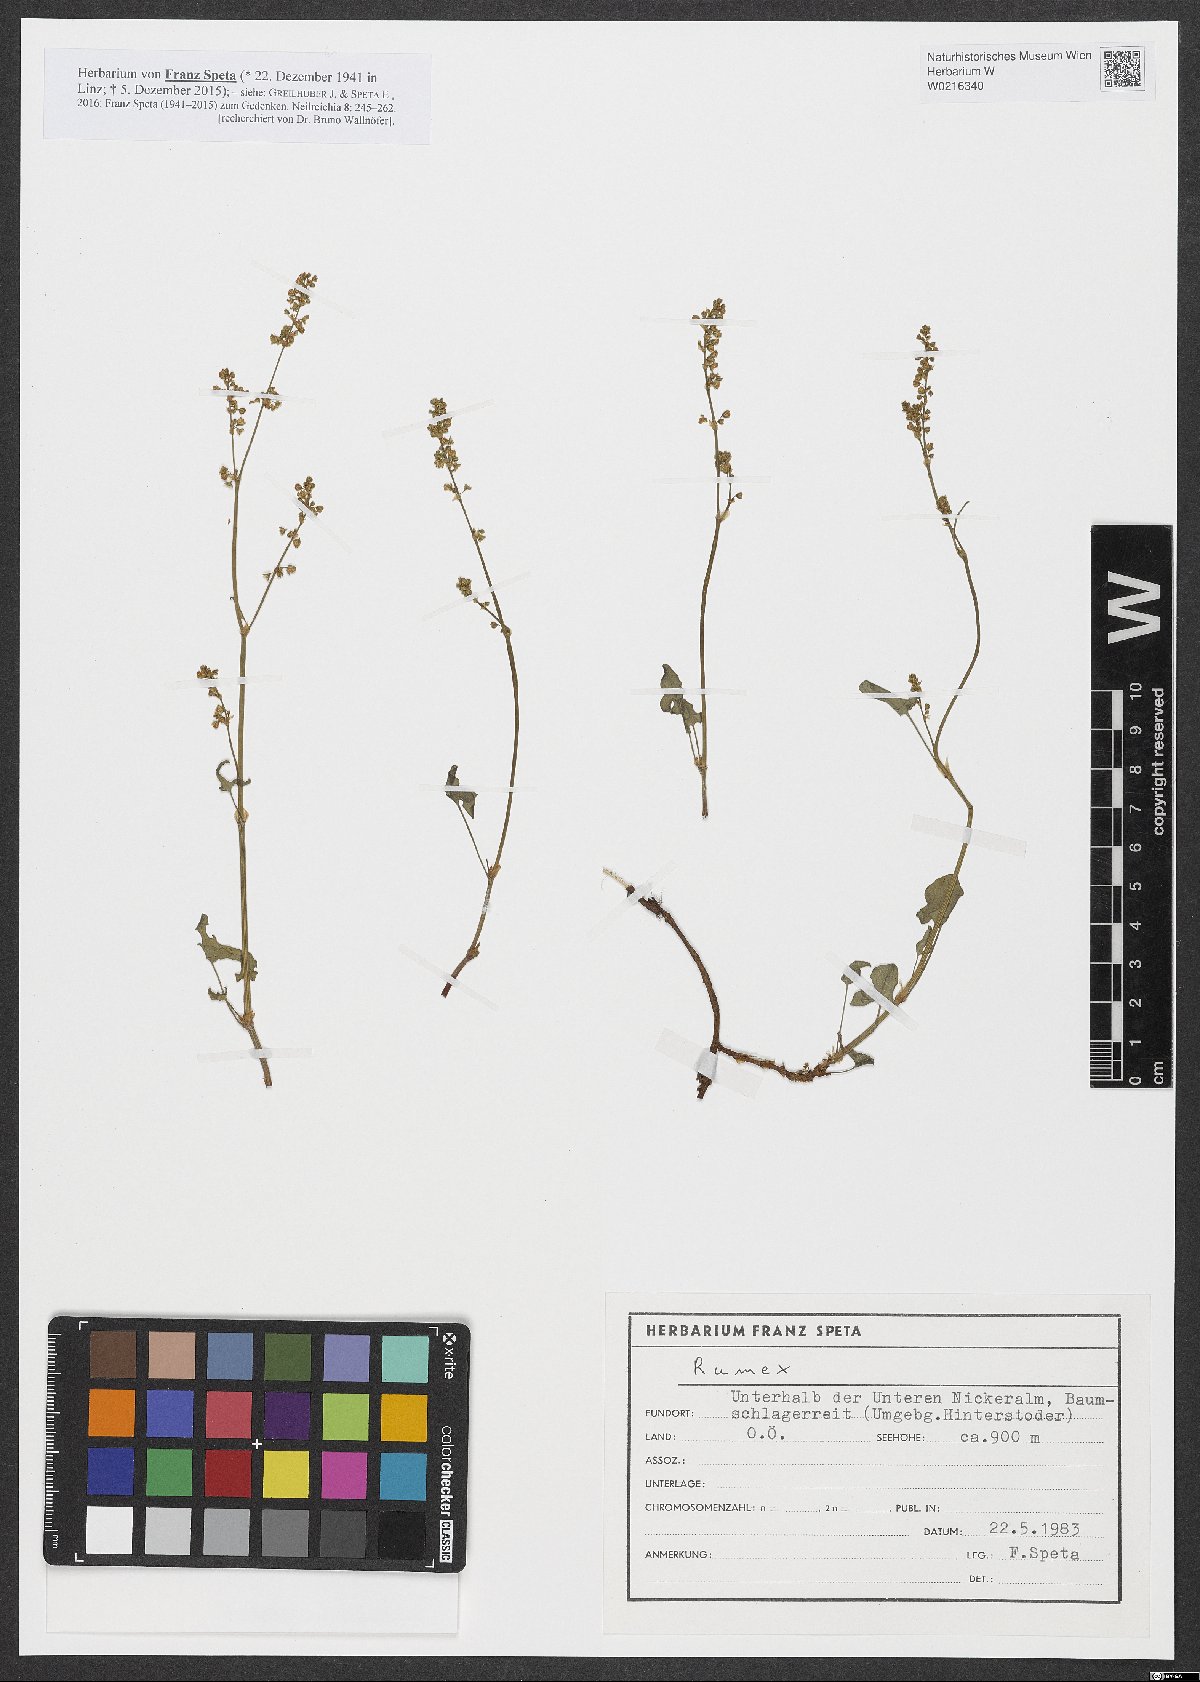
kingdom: Plantae
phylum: Tracheophyta
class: Magnoliopsida
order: Caryophyllales
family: Polygonaceae
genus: Rumex
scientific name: Rumex
